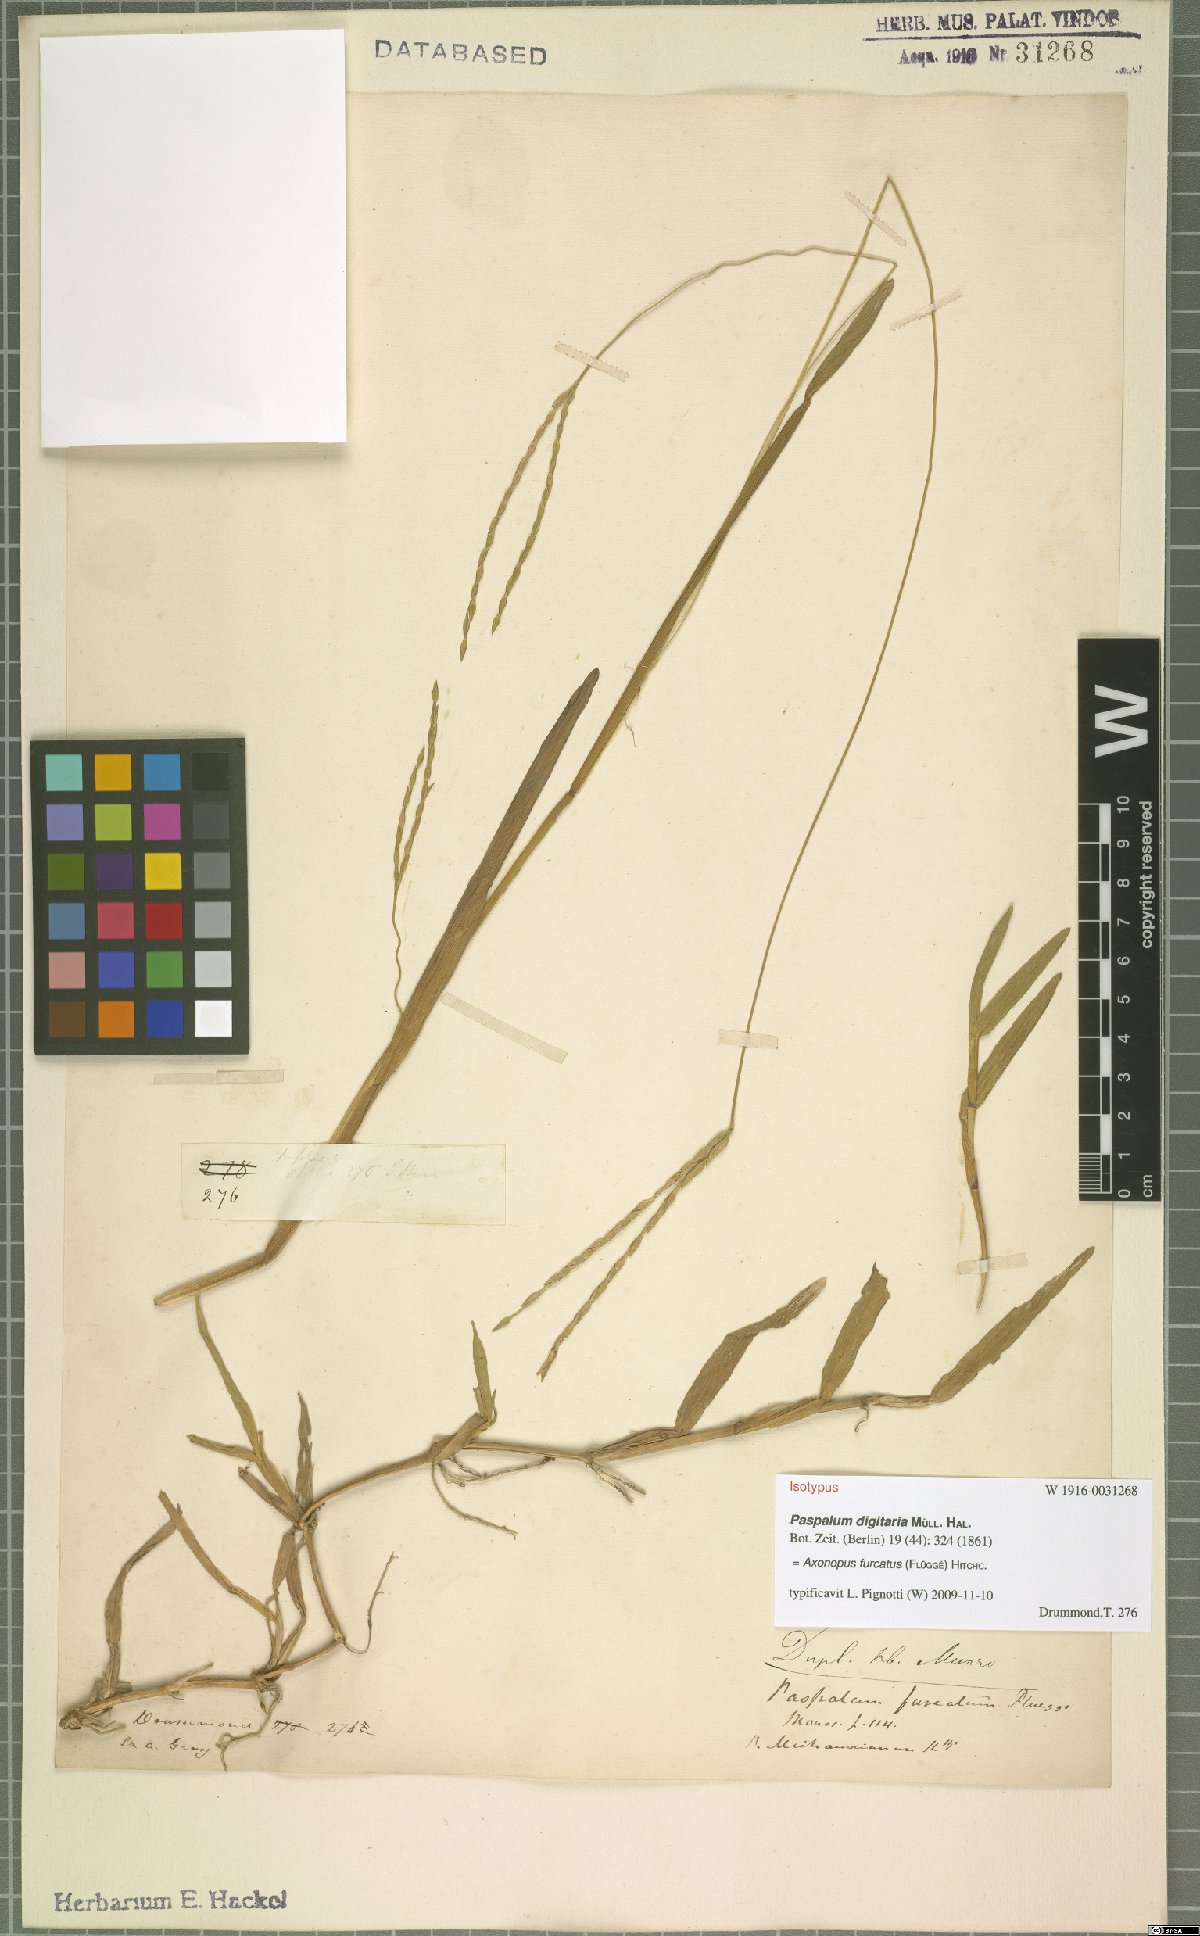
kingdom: Plantae
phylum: Tracheophyta
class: Liliopsida
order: Poales
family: Poaceae
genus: Axonopus
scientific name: Axonopus furcatus
